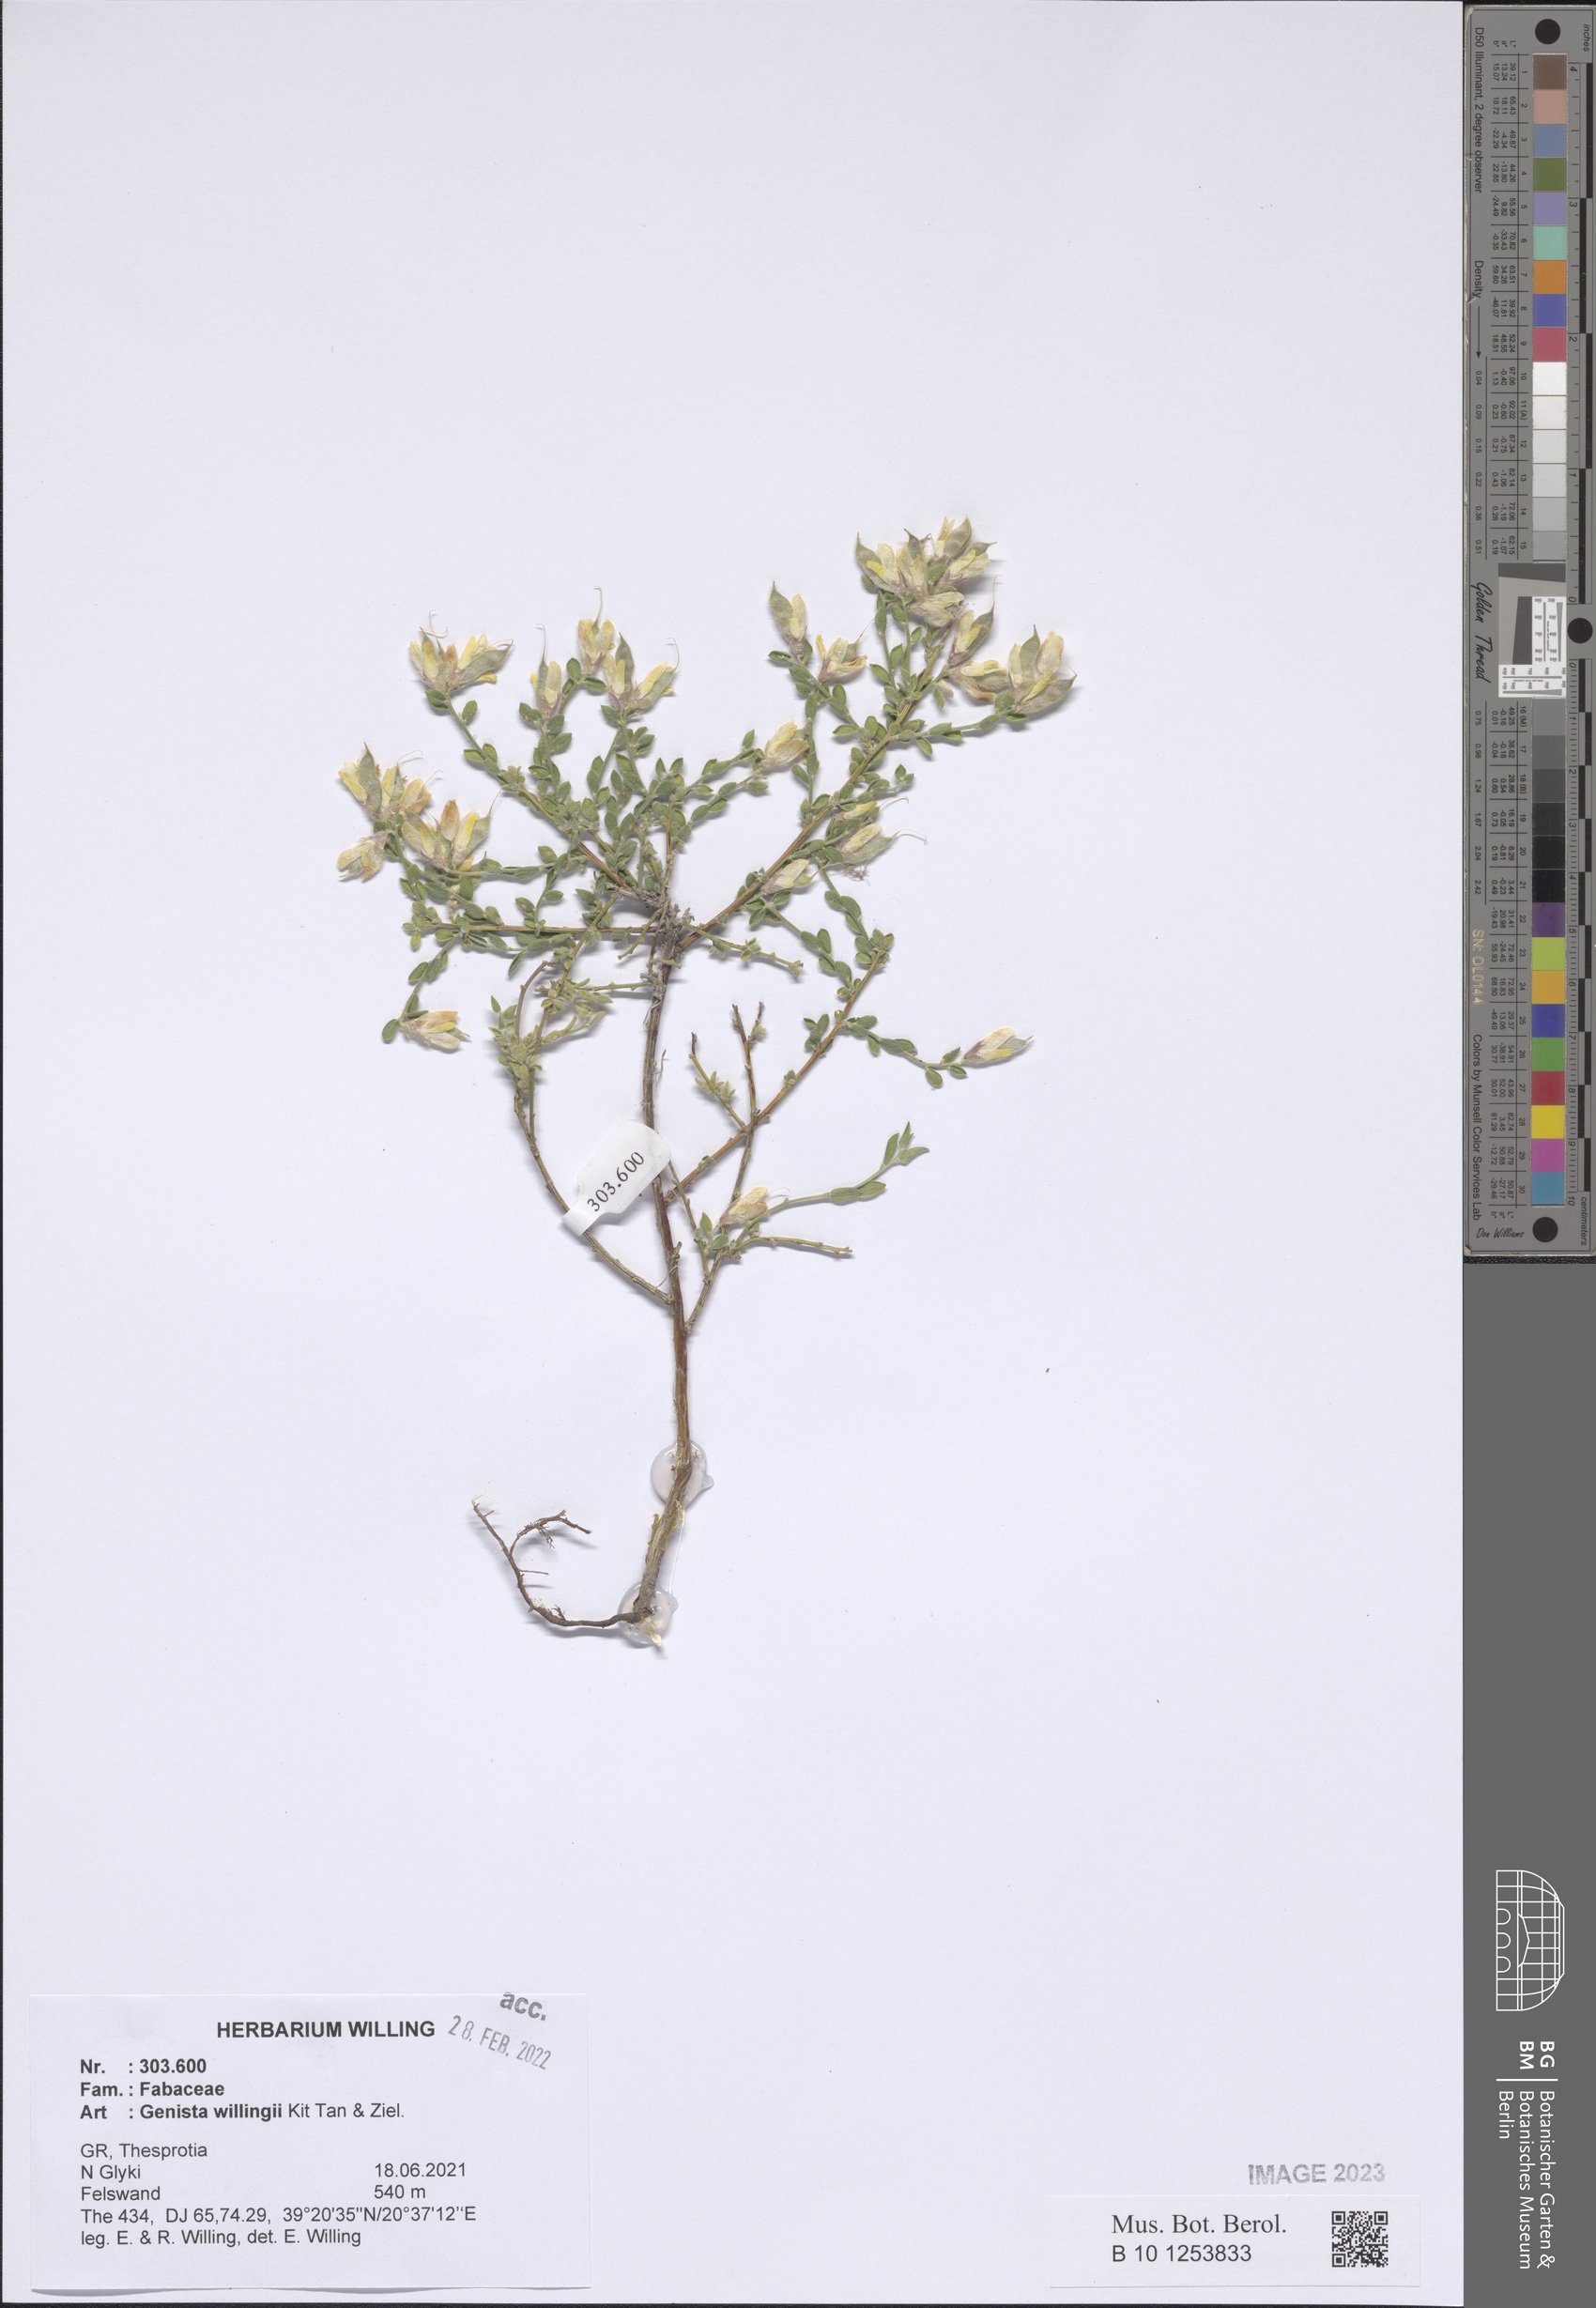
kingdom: Plantae
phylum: Tracheophyta
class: Magnoliopsida
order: Fabales
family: Fabaceae
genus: Genista
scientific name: Genista willingii
